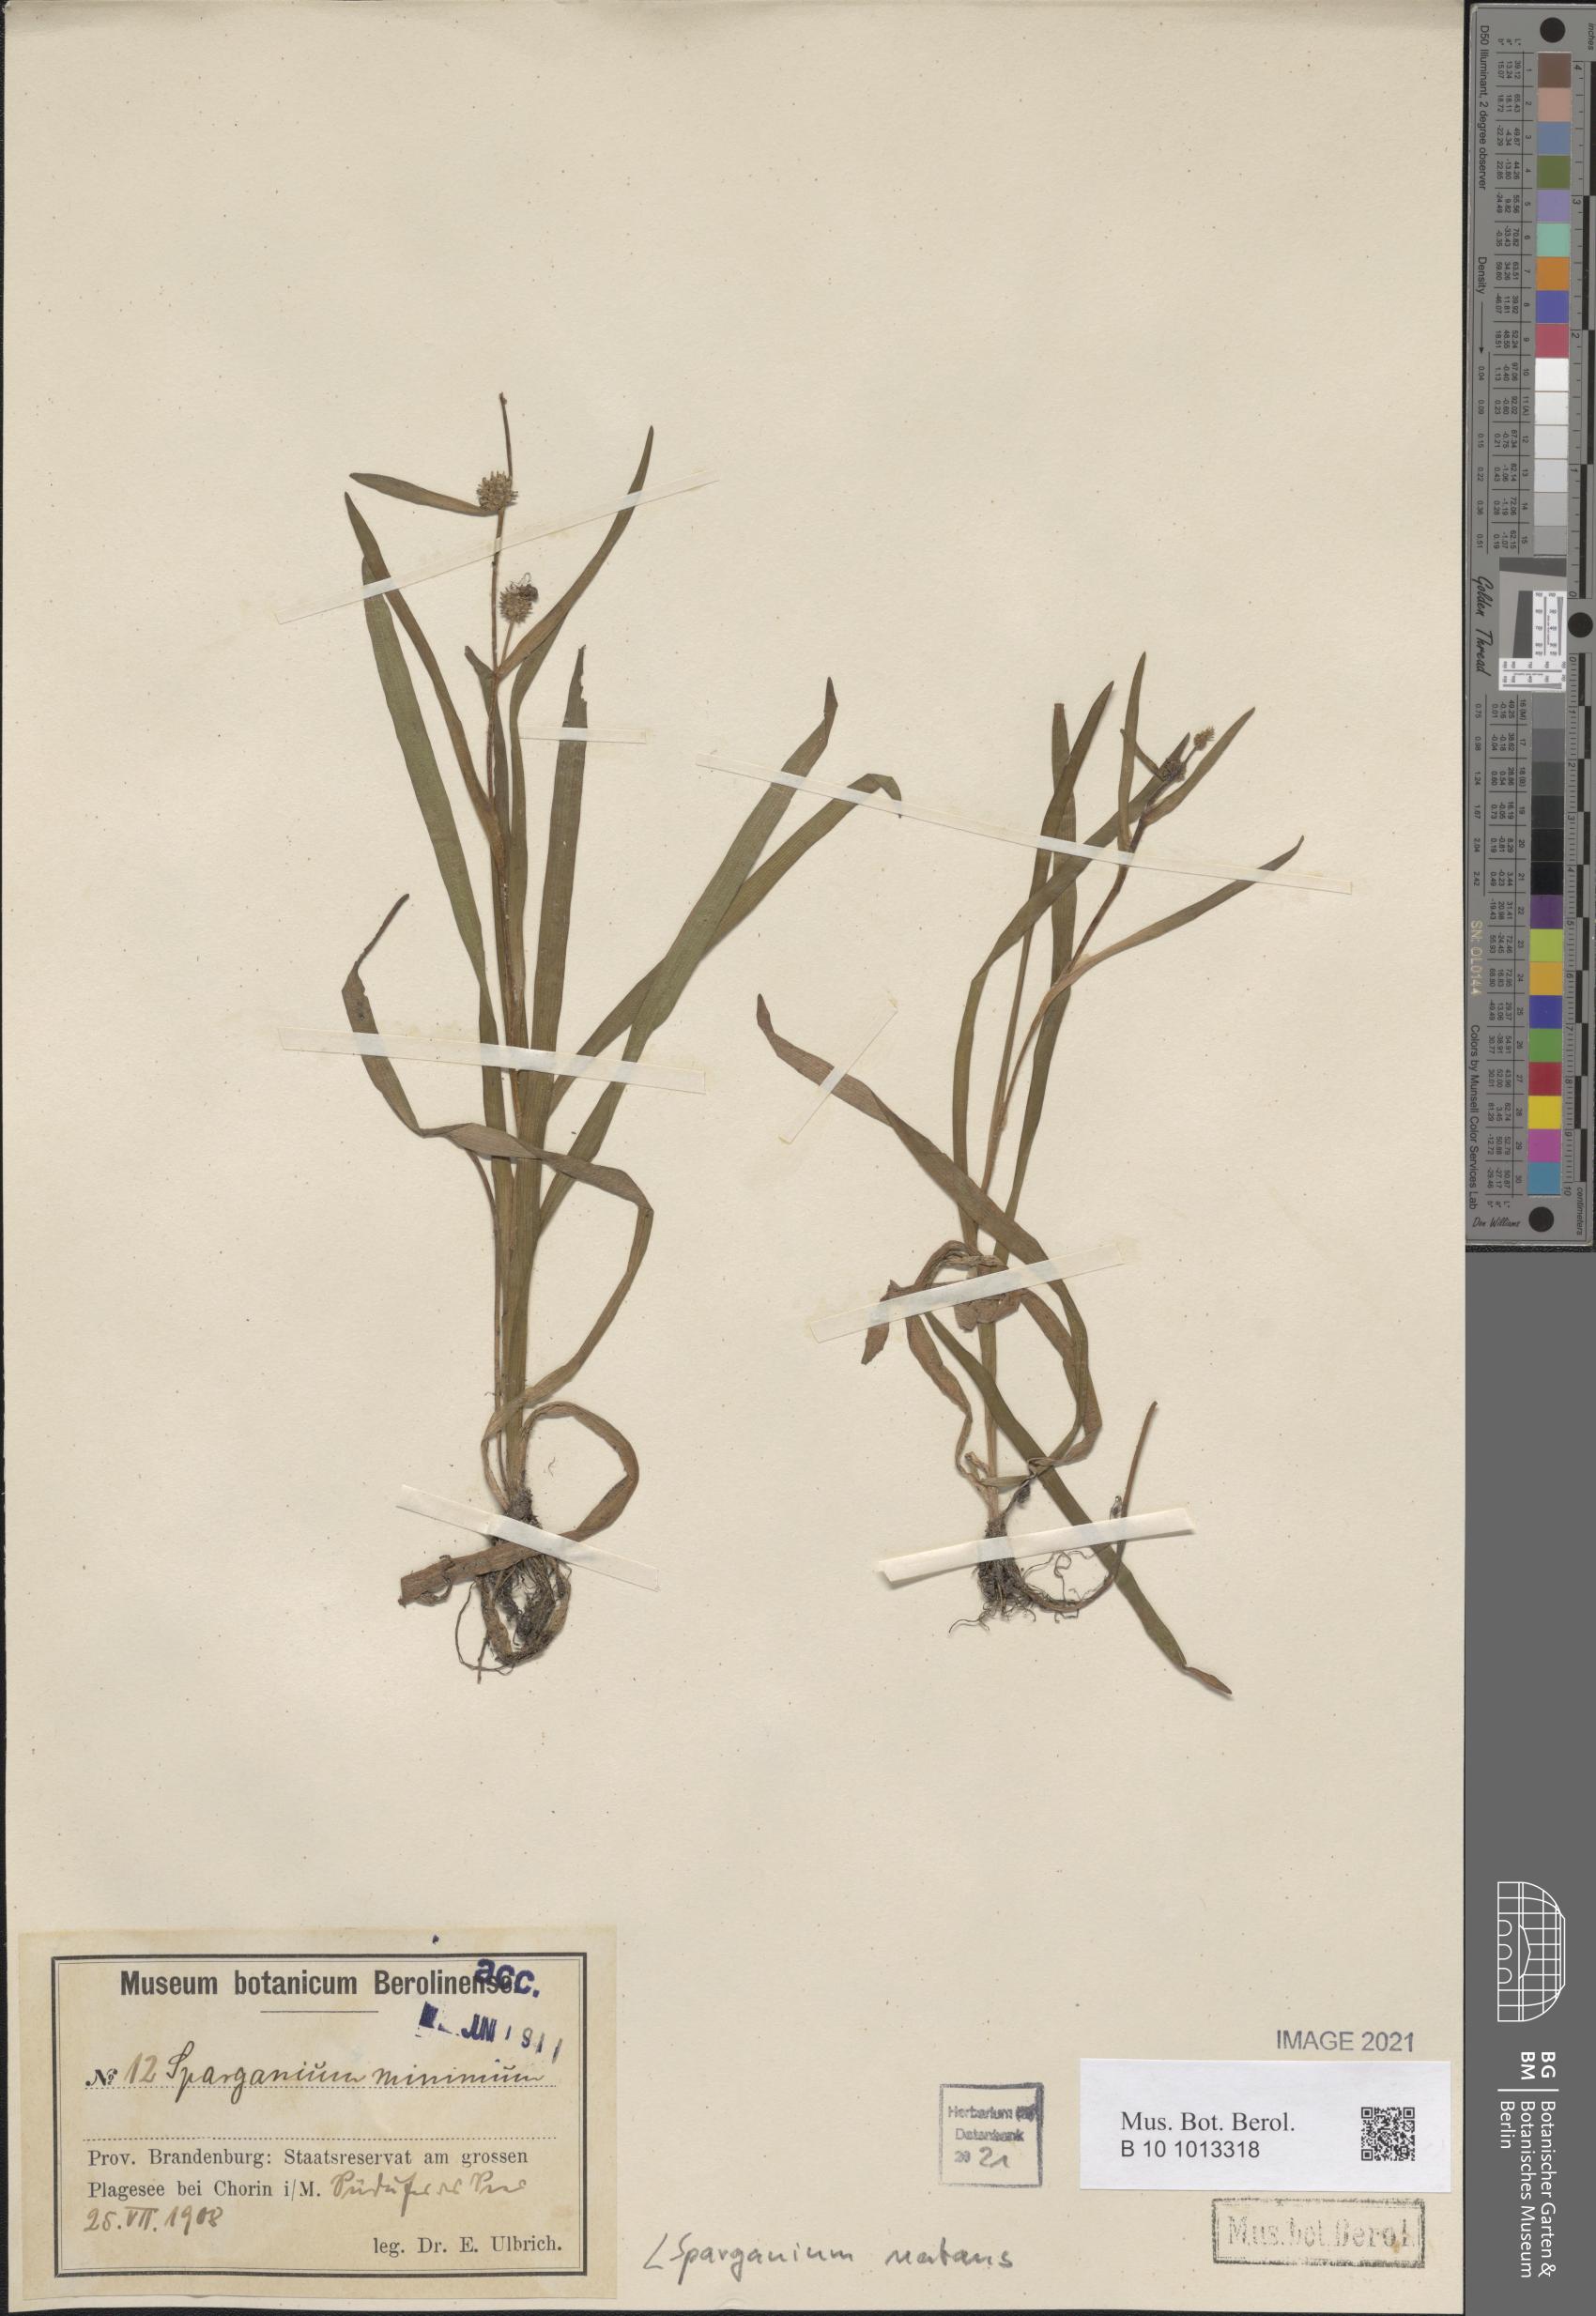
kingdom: Plantae
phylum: Tracheophyta
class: Liliopsida
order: Poales
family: Typhaceae
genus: Sparganium
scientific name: Sparganium natans
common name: Least bur-reed
